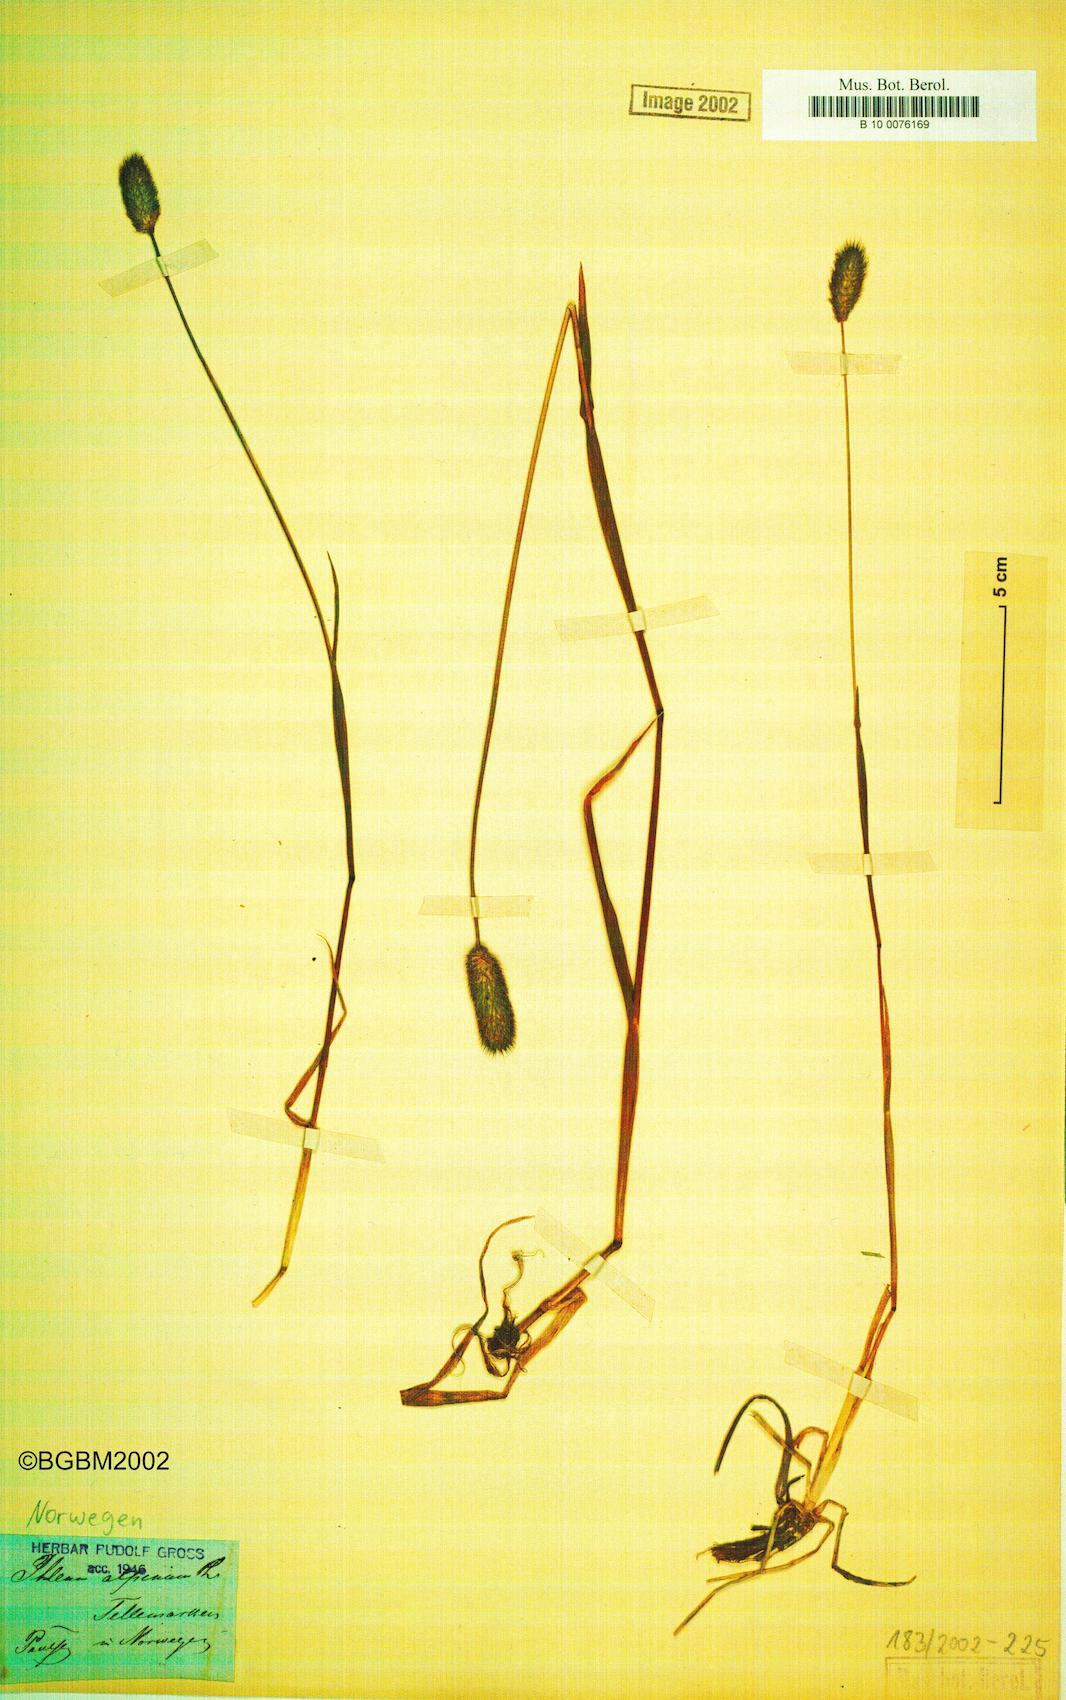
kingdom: Plantae
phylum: Tracheophyta
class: Liliopsida
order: Poales
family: Poaceae
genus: Phleum
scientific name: Phleum alpinum
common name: Alpine cat's-tail
